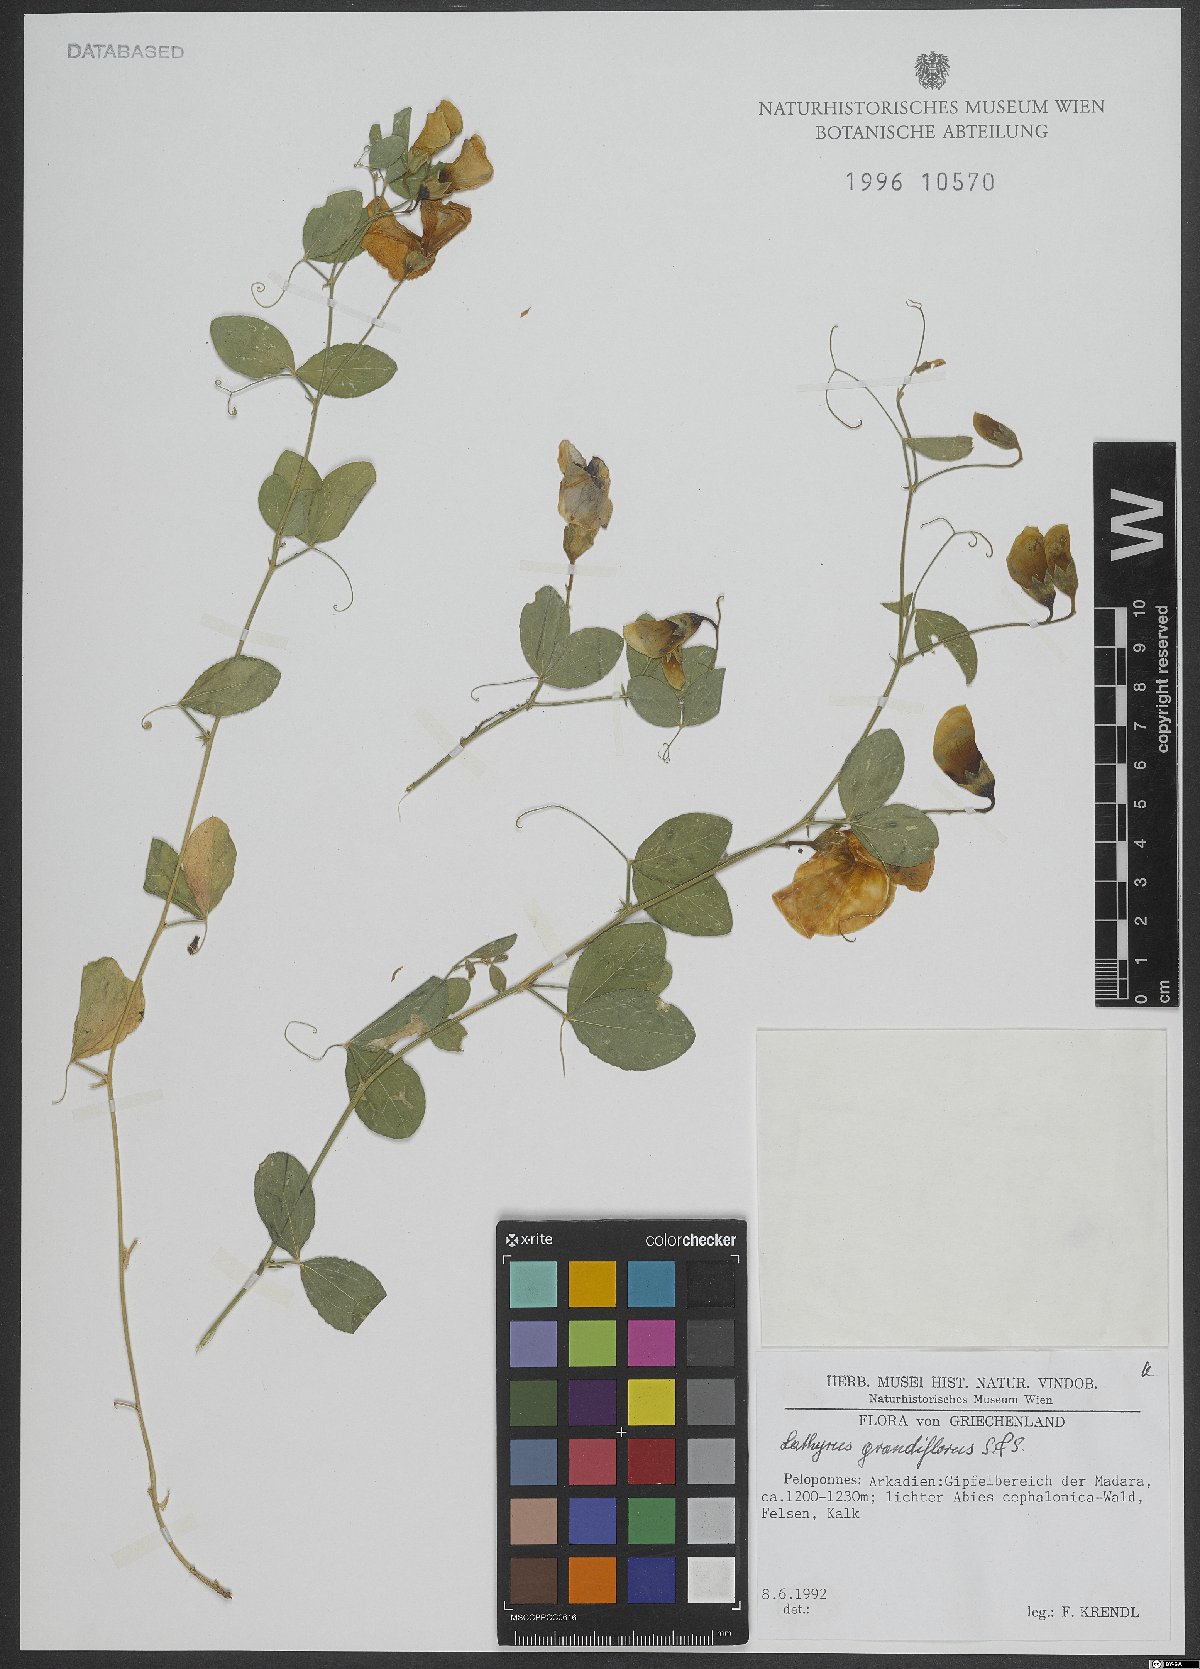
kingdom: Plantae
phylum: Tracheophyta
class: Magnoliopsida
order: Fabales
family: Fabaceae
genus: Lathyrus
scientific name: Lathyrus grandiflorus
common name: Two-flowered everlasting-pea
